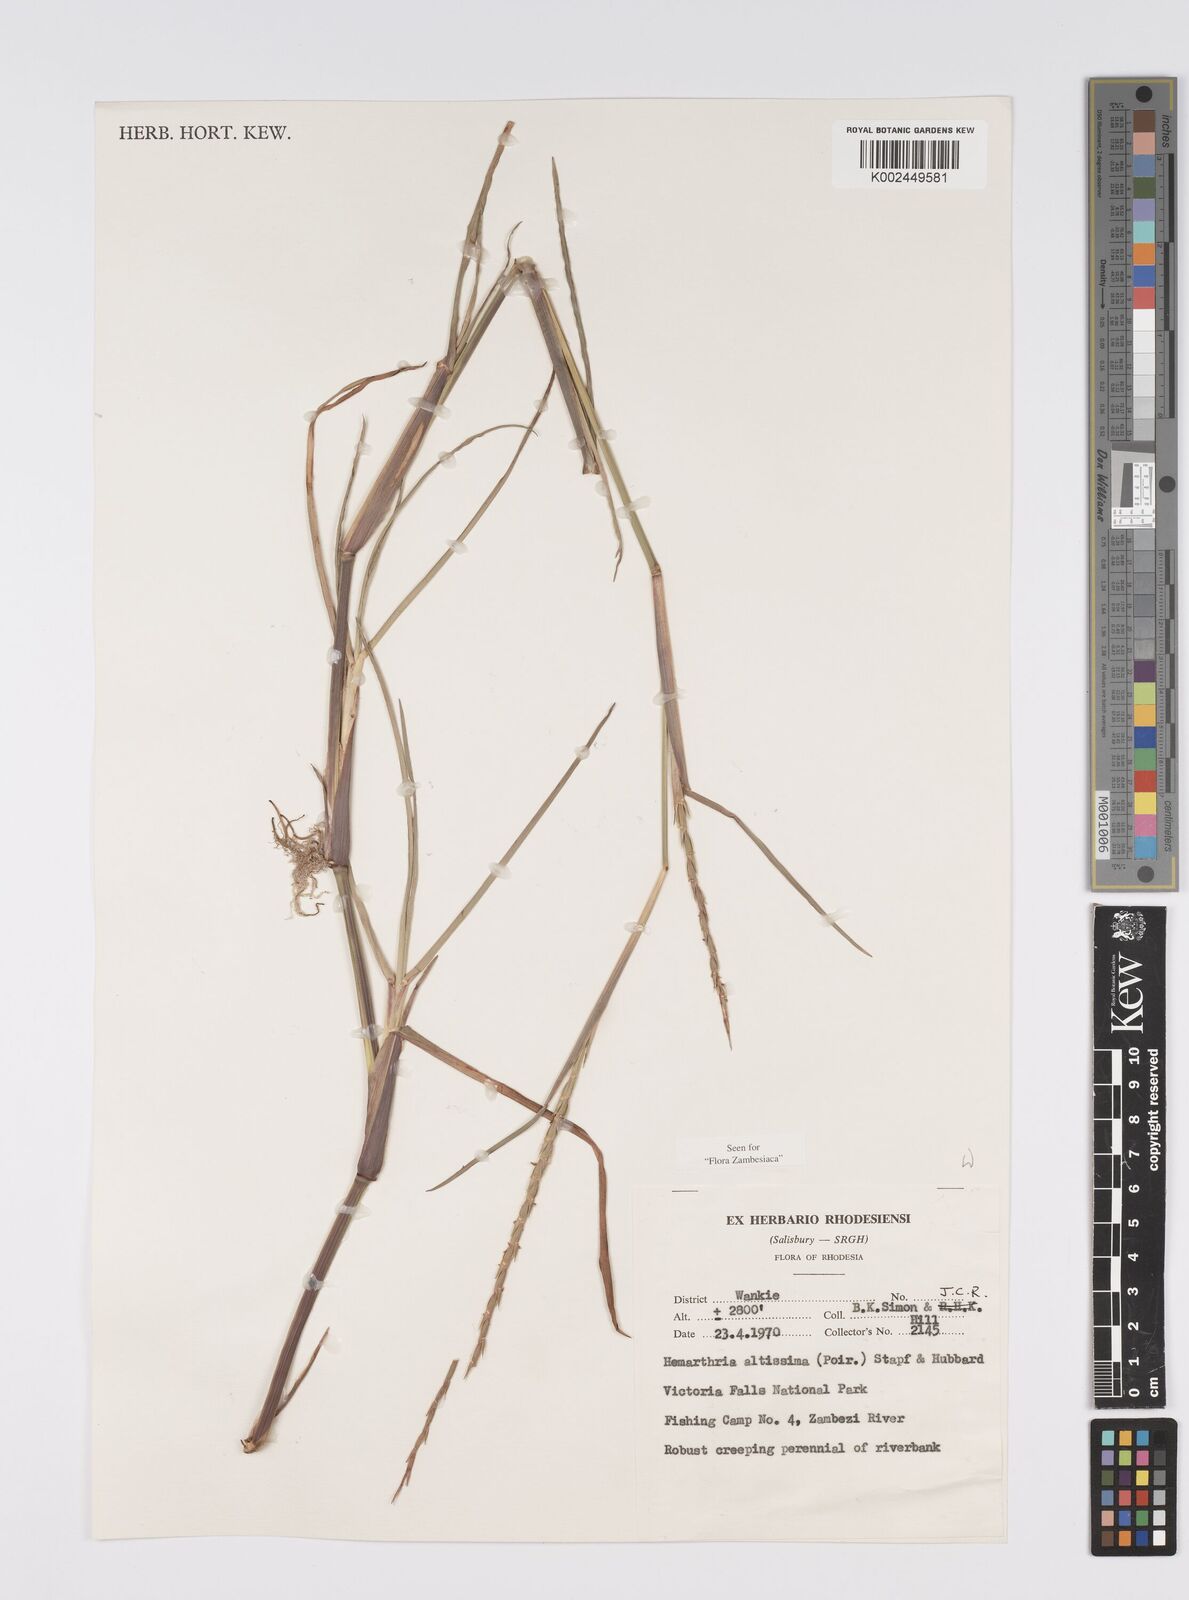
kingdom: Plantae
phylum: Tracheophyta
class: Liliopsida
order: Poales
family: Poaceae
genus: Hemarthria
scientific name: Hemarthria altissima
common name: African jointgrass
